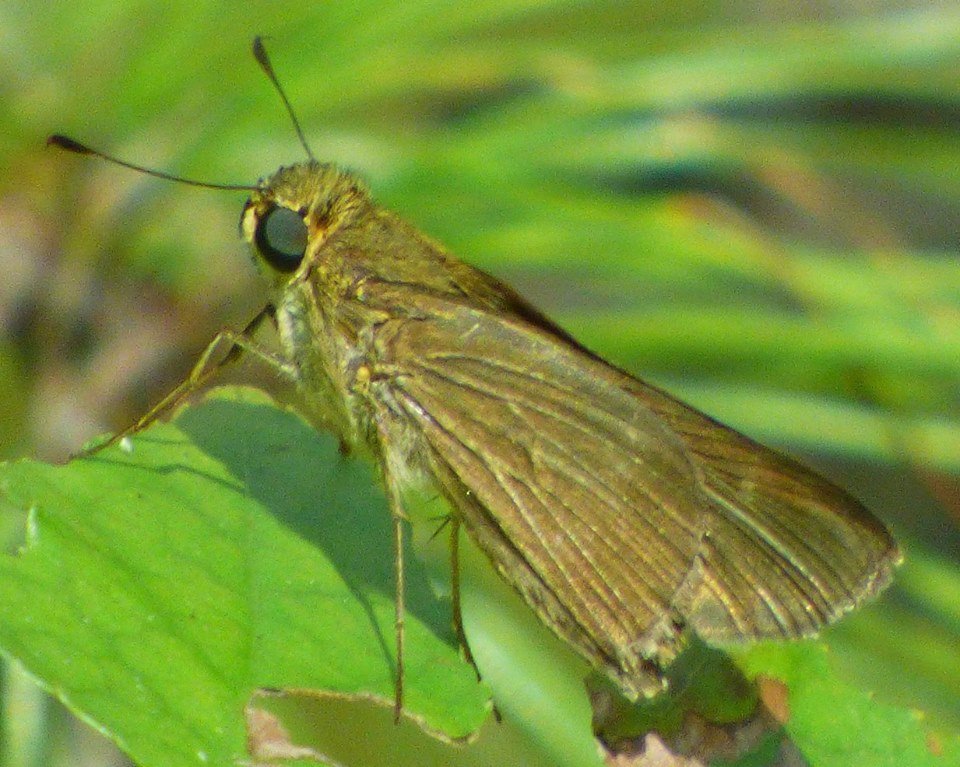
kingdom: Animalia
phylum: Arthropoda
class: Insecta
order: Lepidoptera
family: Hesperiidae
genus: Panoquina
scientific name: Panoquina ocola
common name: Ocola Skipper
